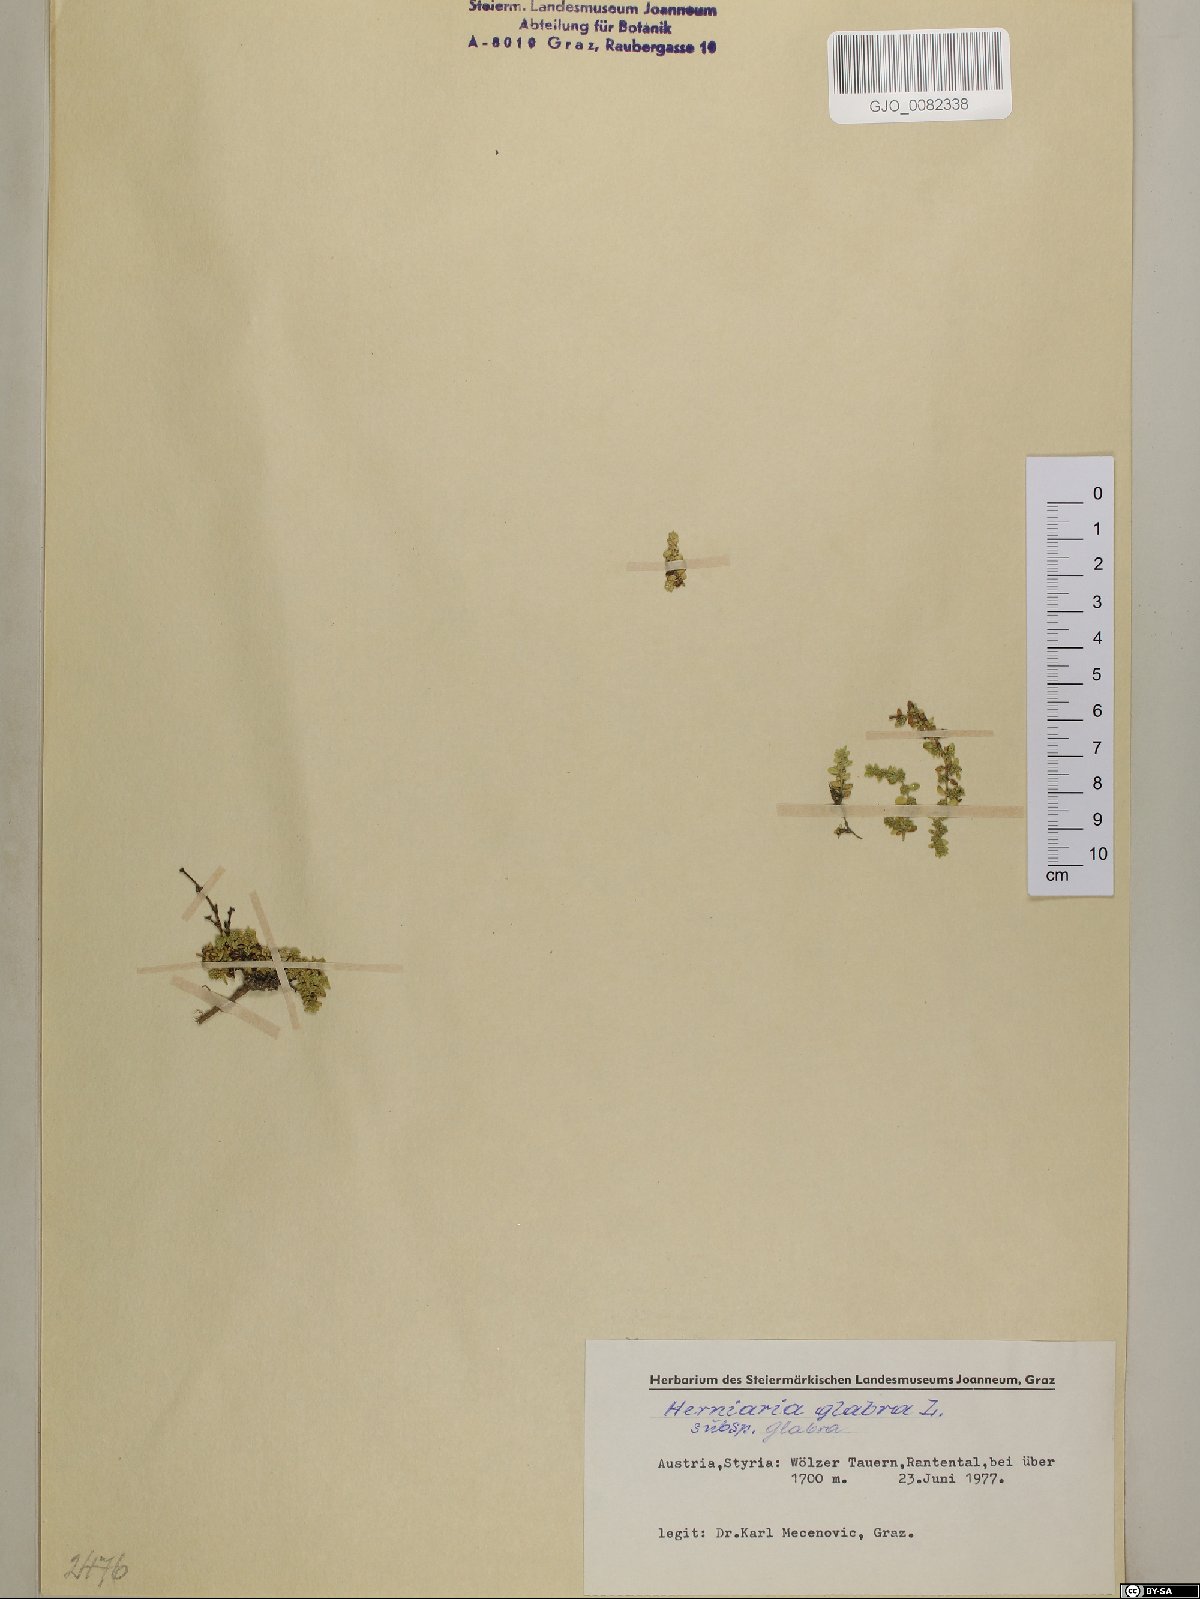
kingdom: Plantae
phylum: Tracheophyta
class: Magnoliopsida
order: Caryophyllales
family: Caryophyllaceae
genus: Herniaria
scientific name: Herniaria glabra
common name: Smooth rupturewort
